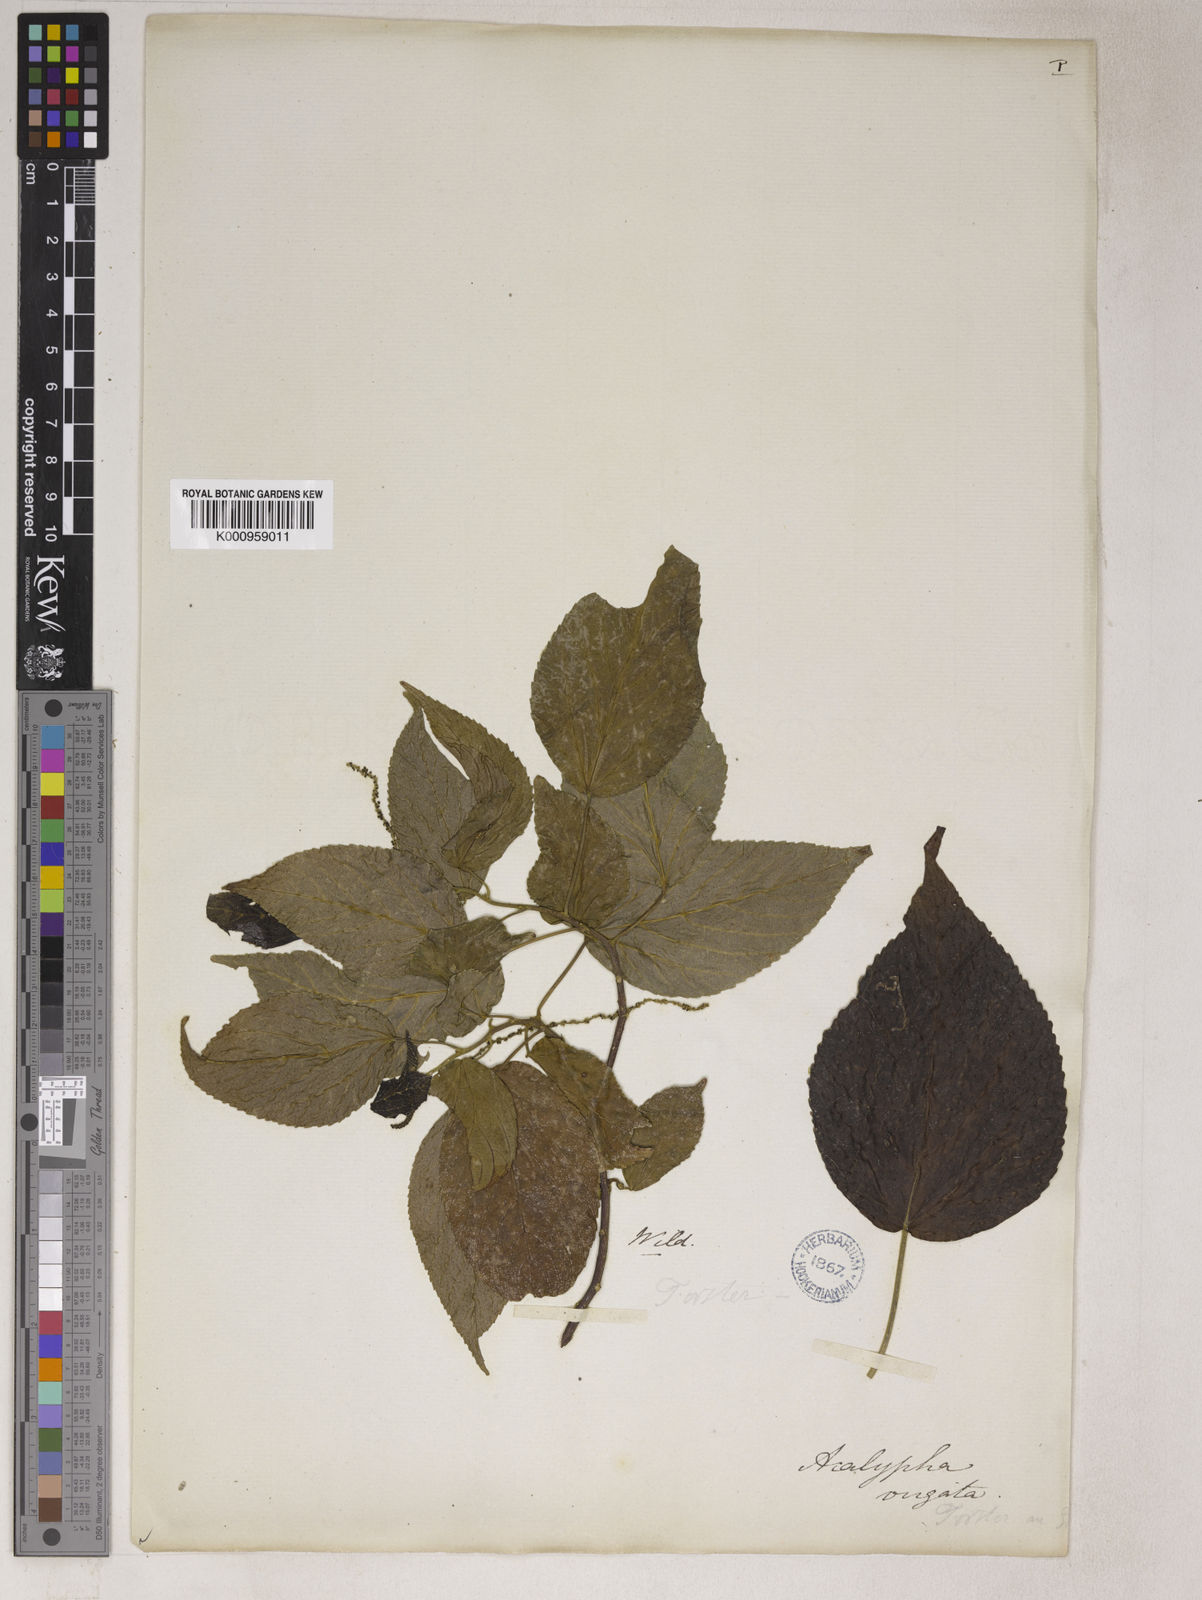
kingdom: Plantae
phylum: Tracheophyta
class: Magnoliopsida
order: Malpighiales
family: Euphorbiaceae
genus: Acalypha
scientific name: Acalypha
